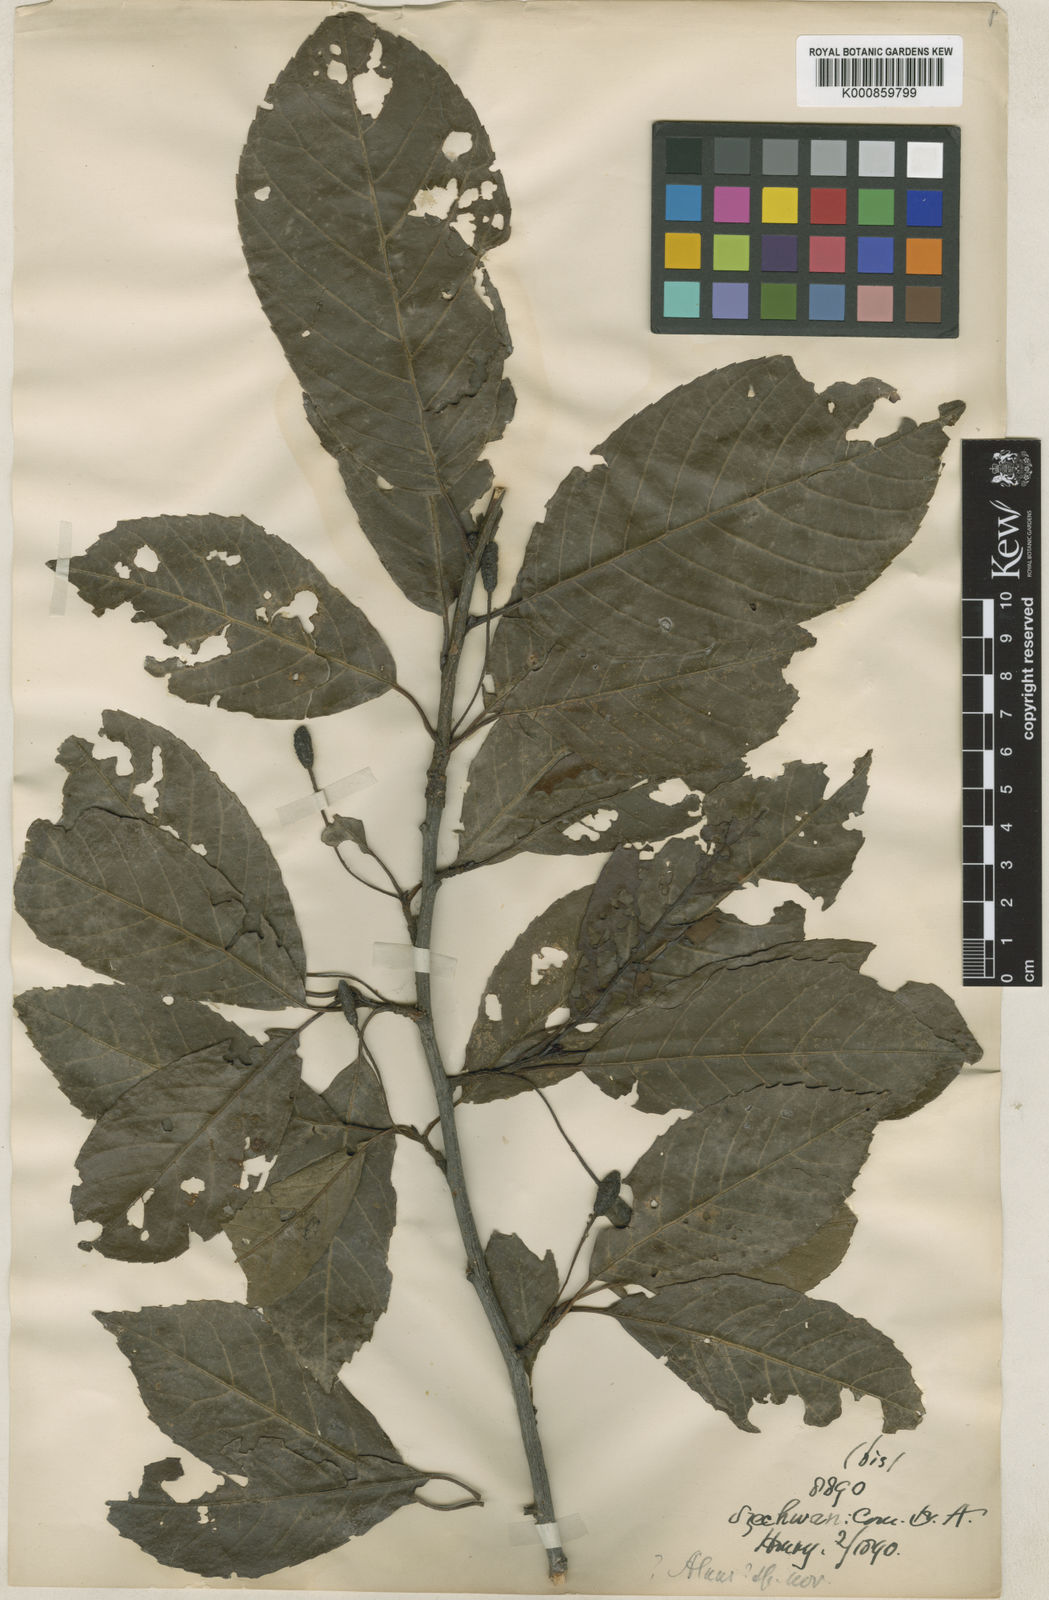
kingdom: Plantae
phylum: Tracheophyta
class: Magnoliopsida
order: Fagales
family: Betulaceae
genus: Alnus
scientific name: Alnus cremastogyne
